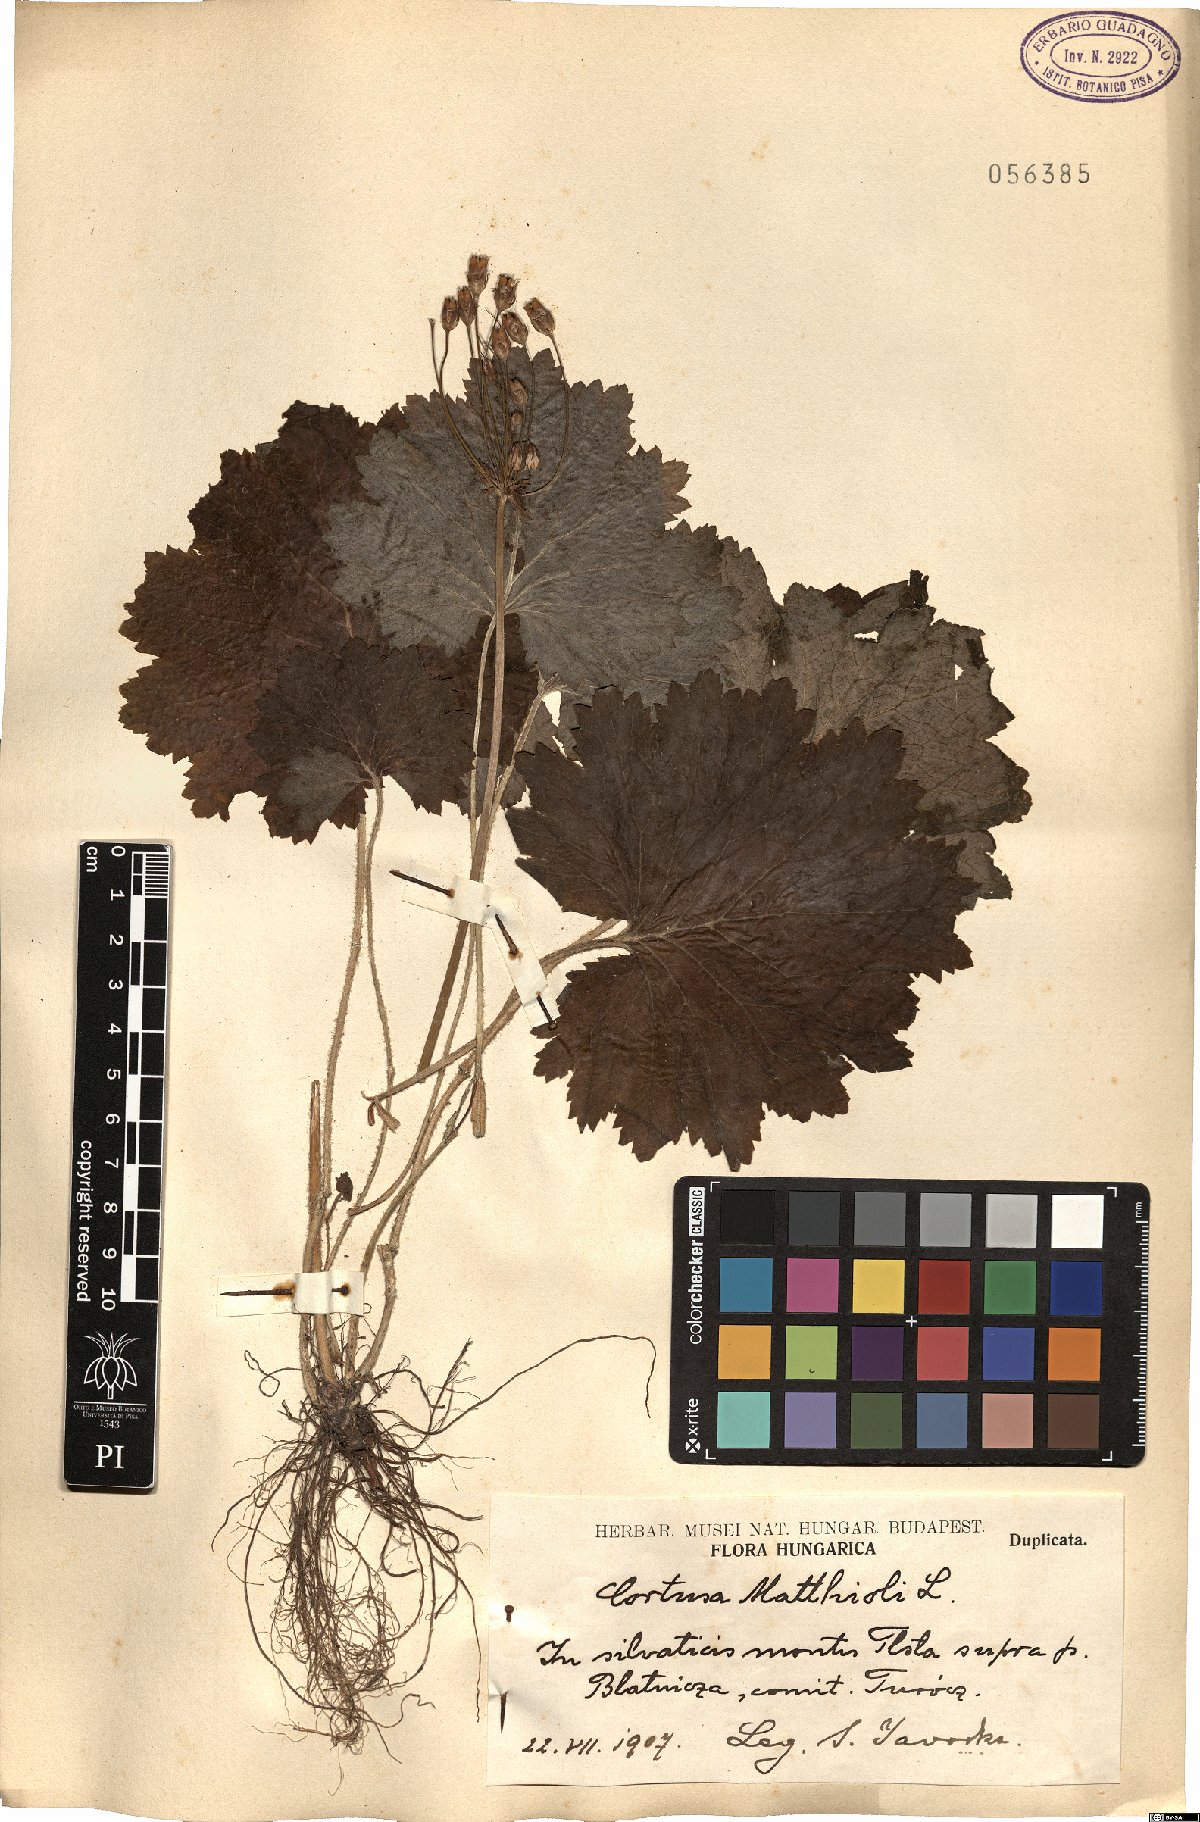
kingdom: Plantae
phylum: Tracheophyta
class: Magnoliopsida
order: Ericales
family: Primulaceae
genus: Primula
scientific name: Primula matthioli
